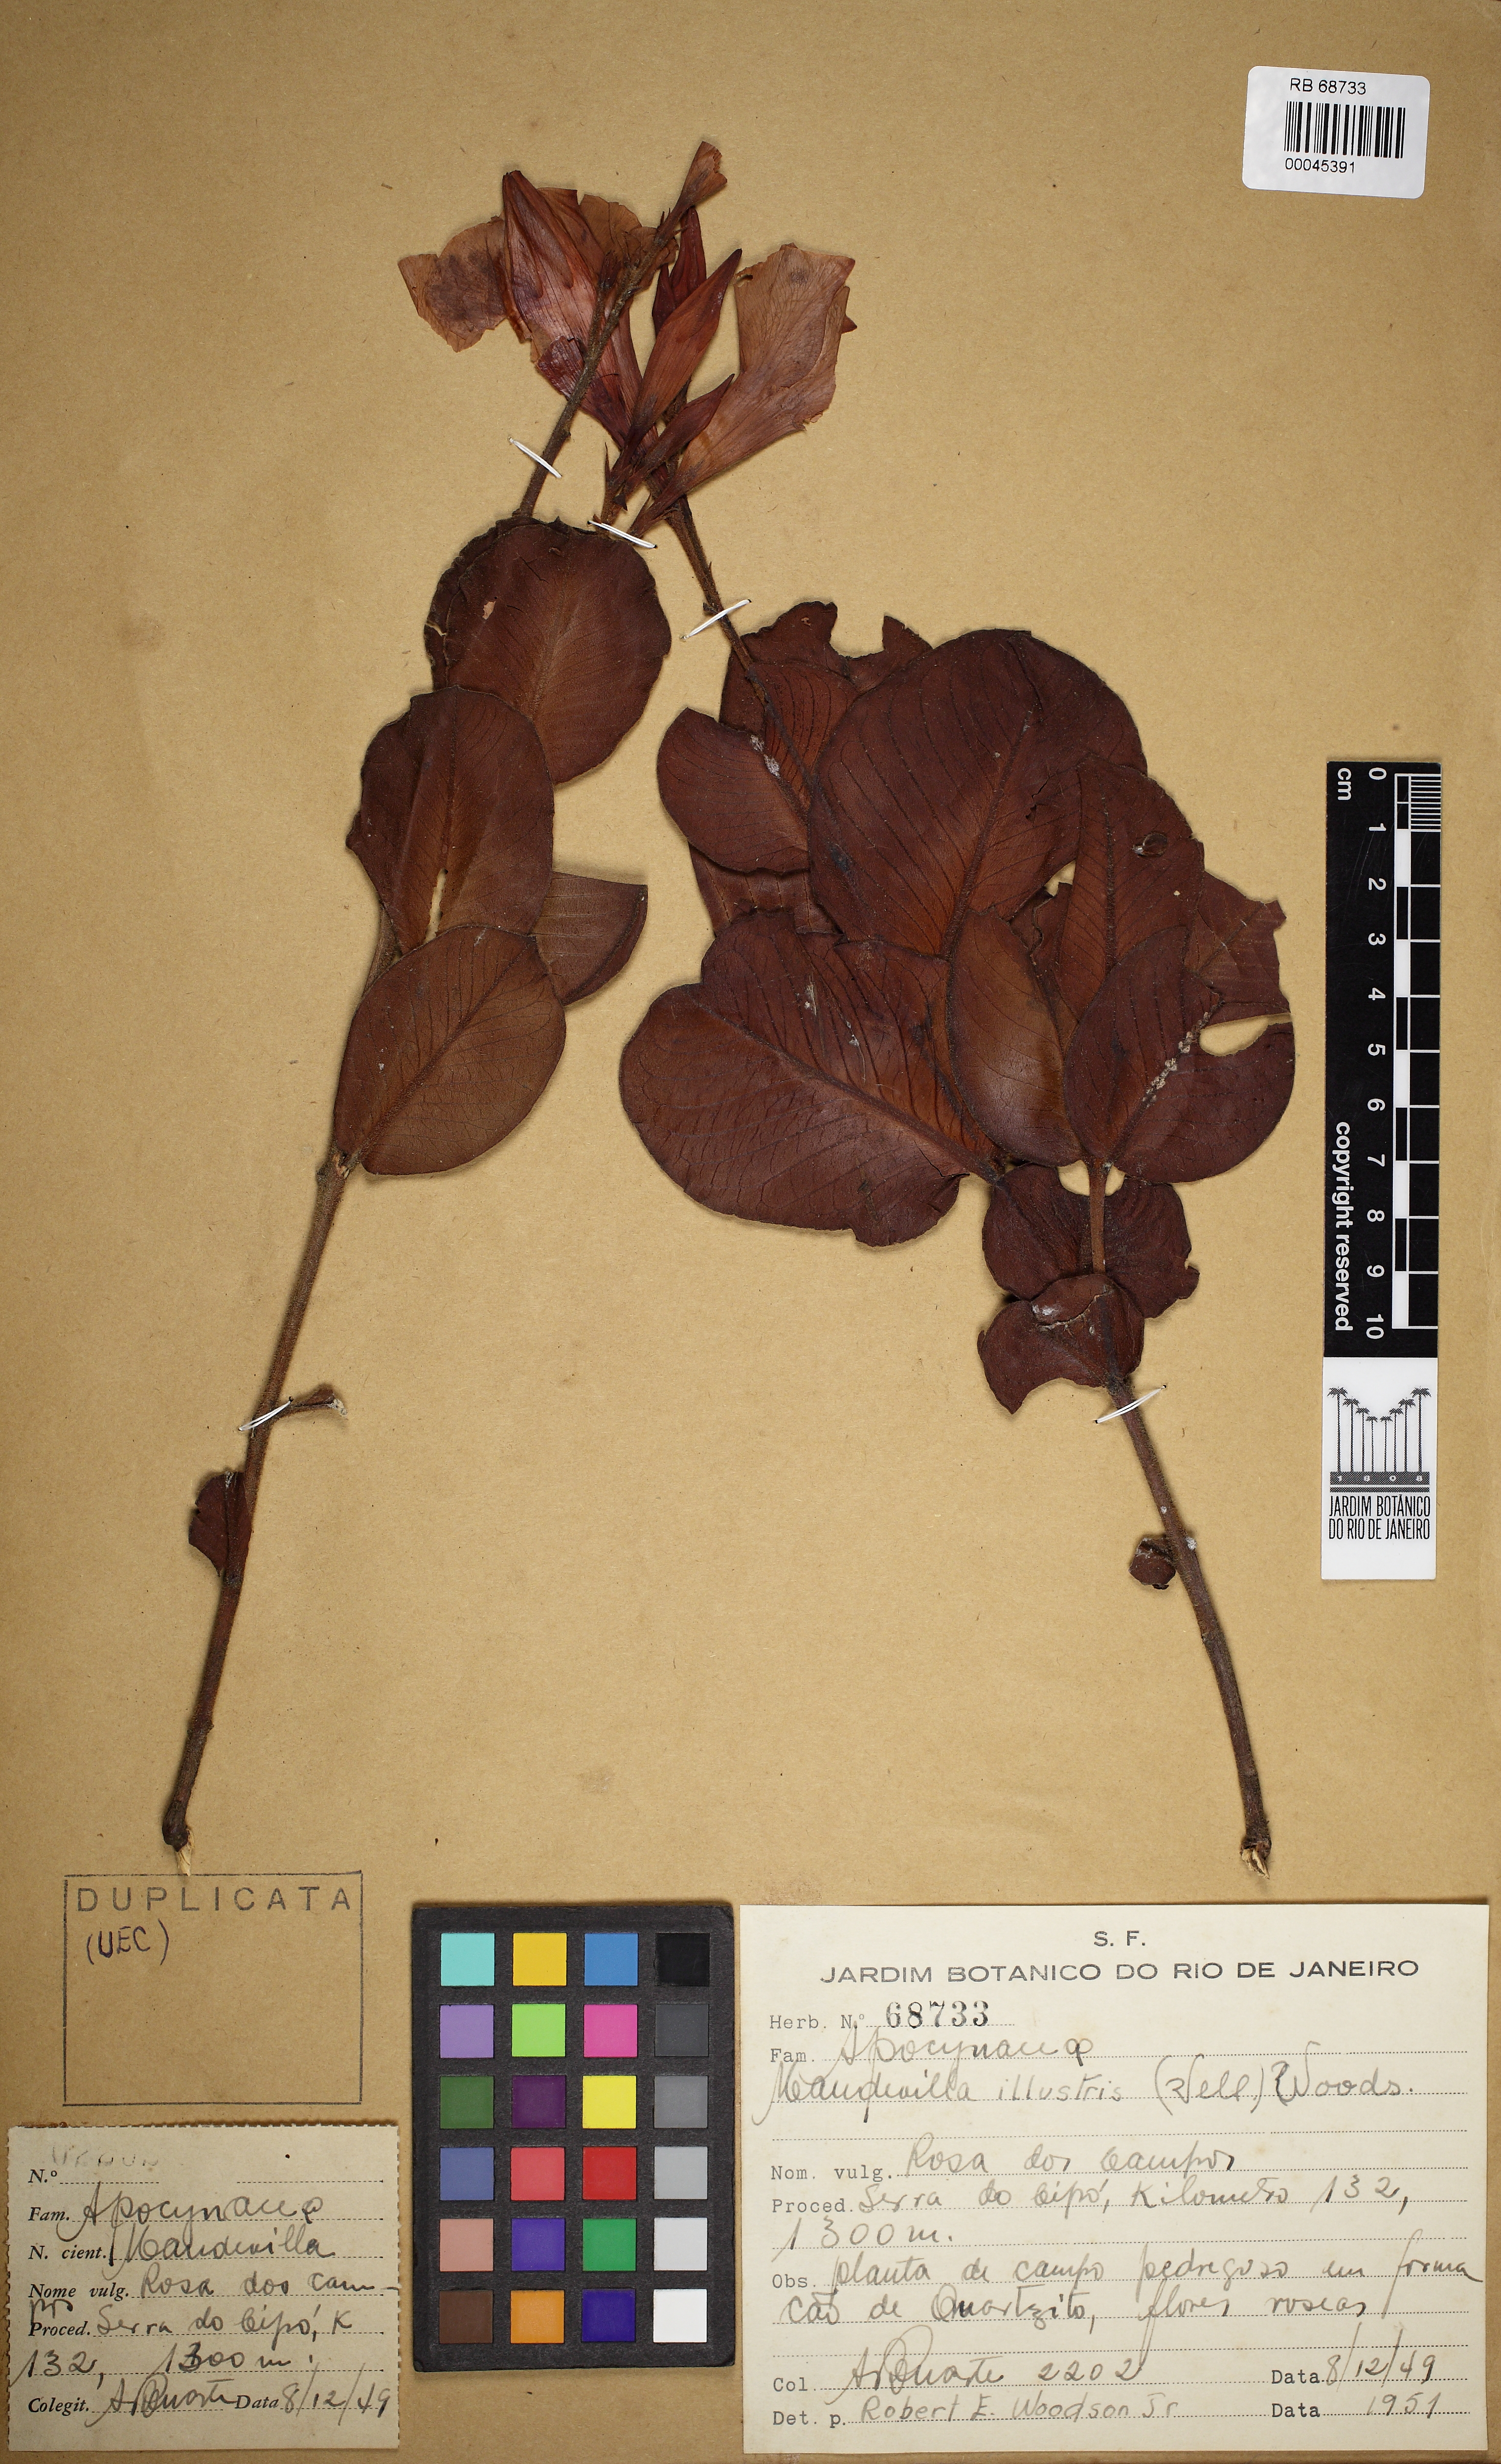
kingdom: Plantae
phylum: Tracheophyta
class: Magnoliopsida
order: Gentianales
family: Apocynaceae
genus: Mandevilla
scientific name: Mandevilla illustris
